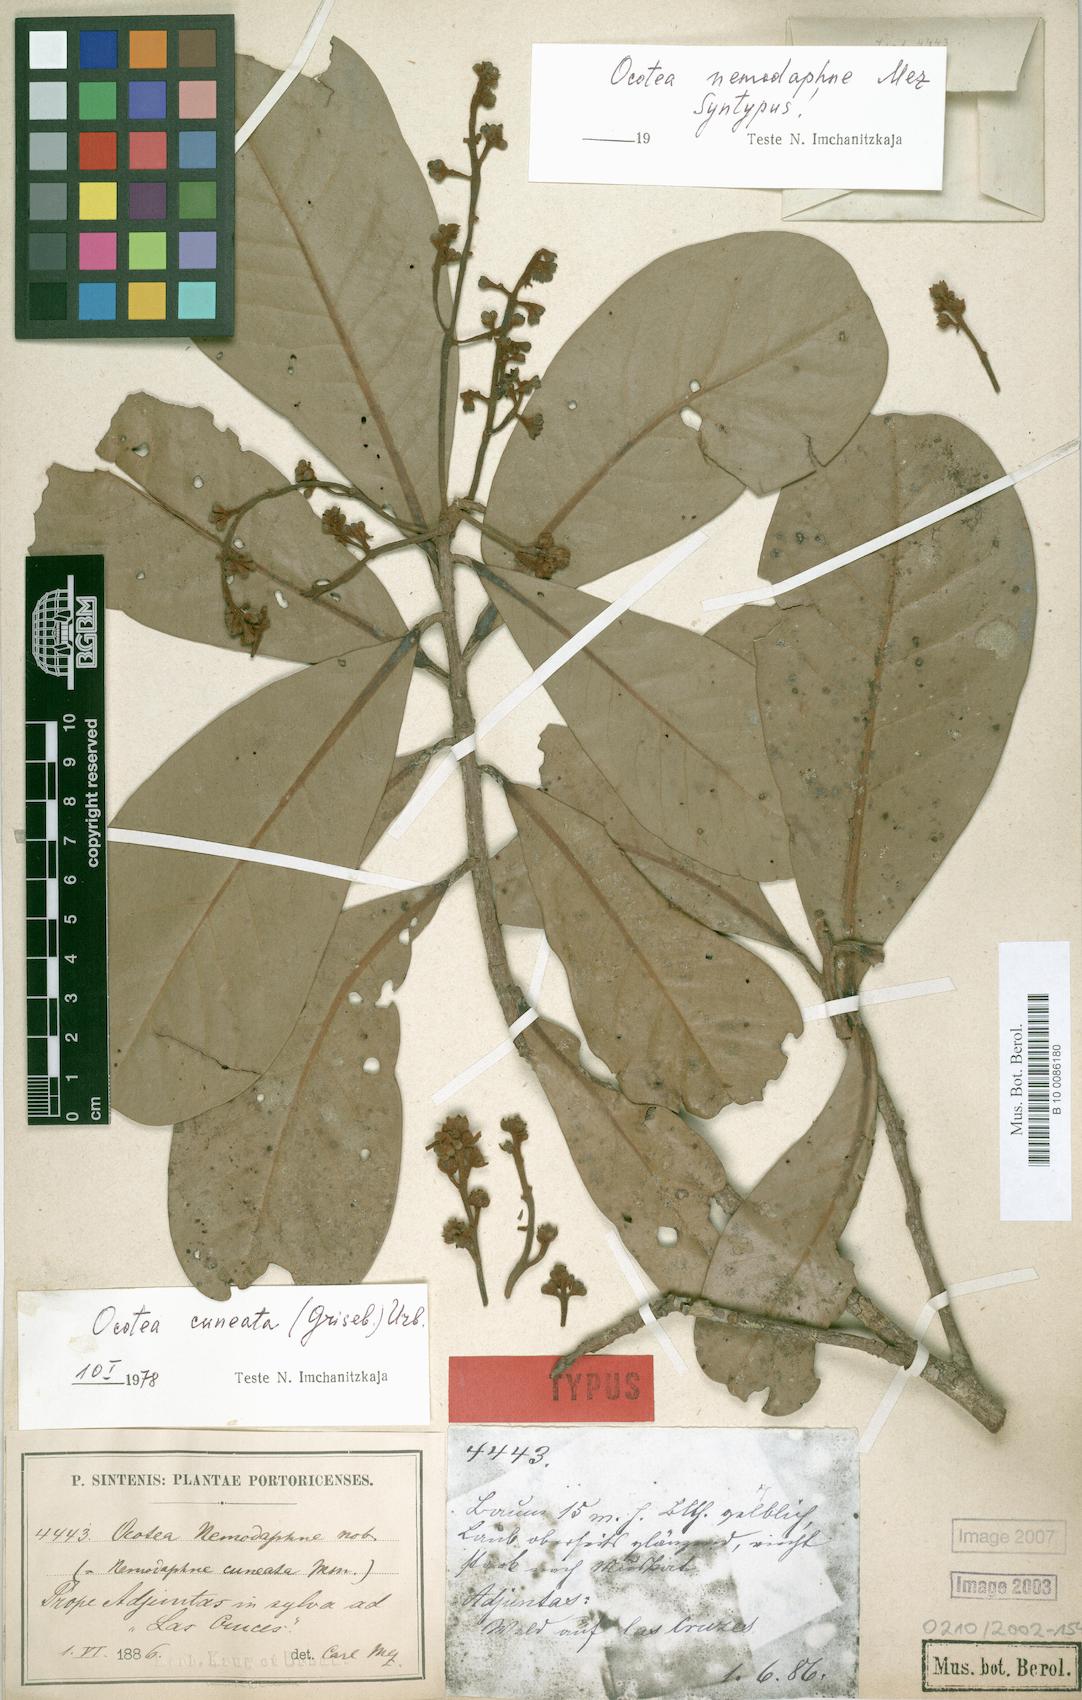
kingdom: Plantae
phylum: Tracheophyta
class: Magnoliopsida
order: Laurales
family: Lauraceae
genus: Ocotea
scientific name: Ocotea cuneata
